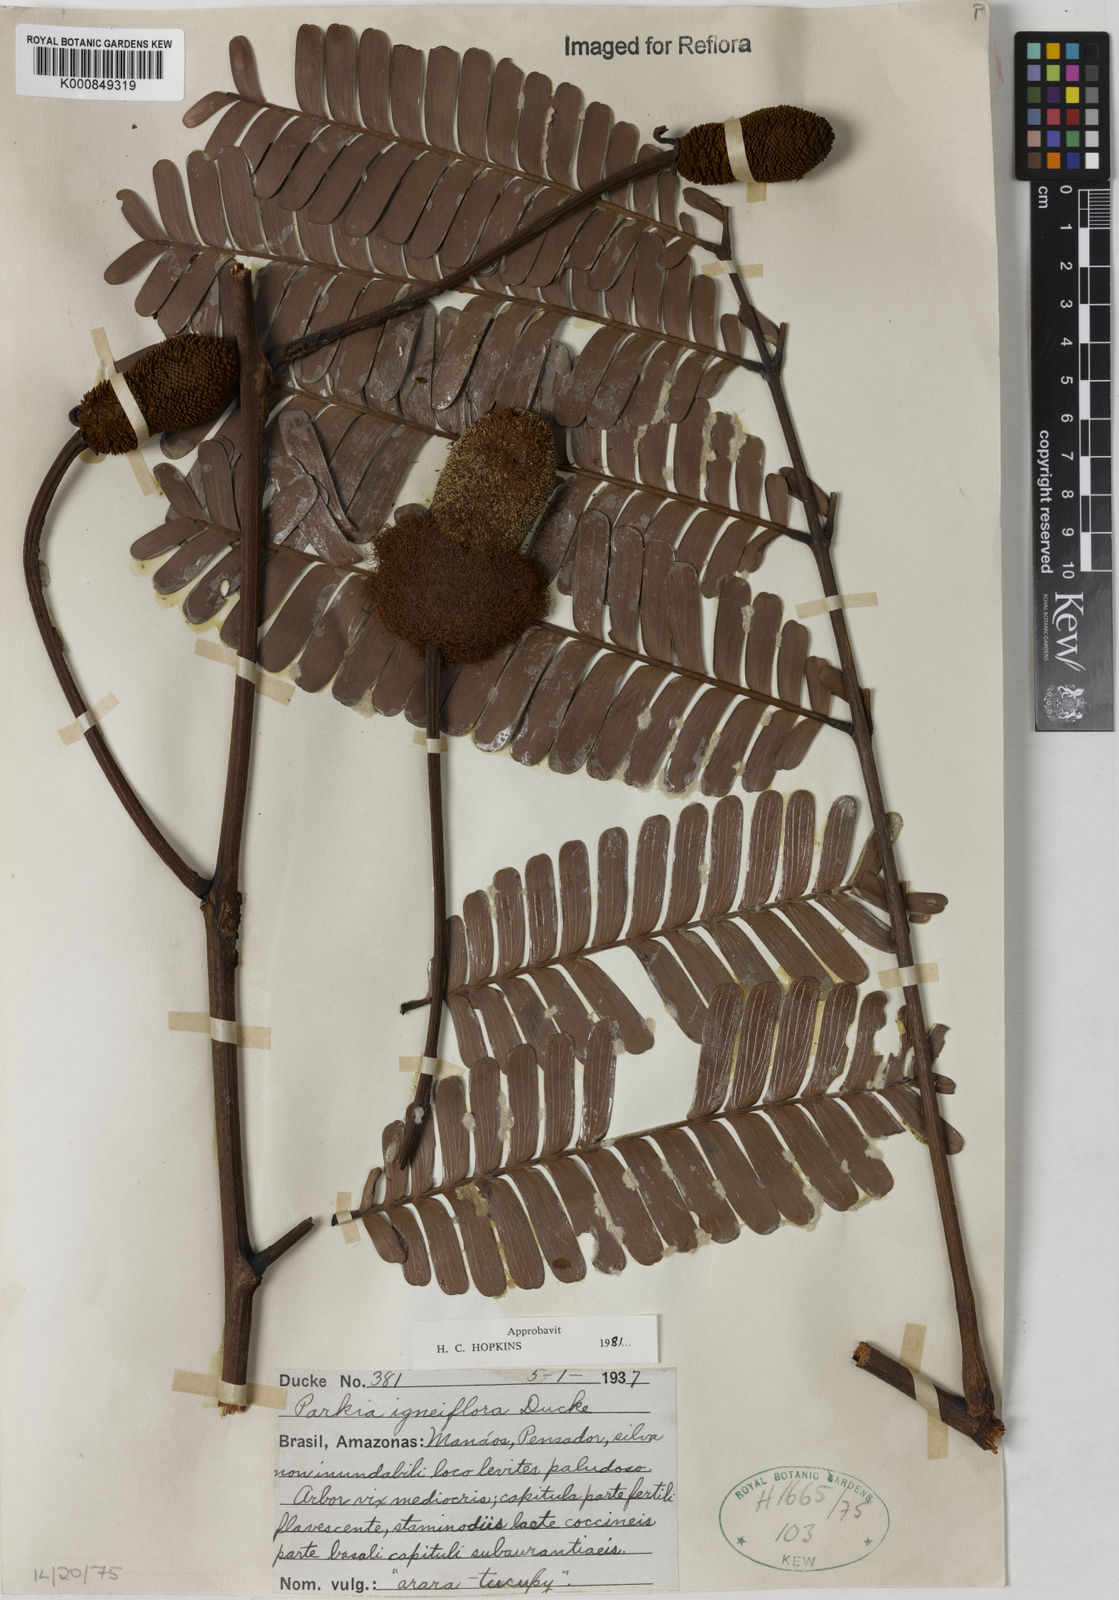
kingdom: Plantae
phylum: Tracheophyta
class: Magnoliopsida
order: Fabales
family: Fabaceae
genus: Parkia
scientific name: Parkia igneiflora
